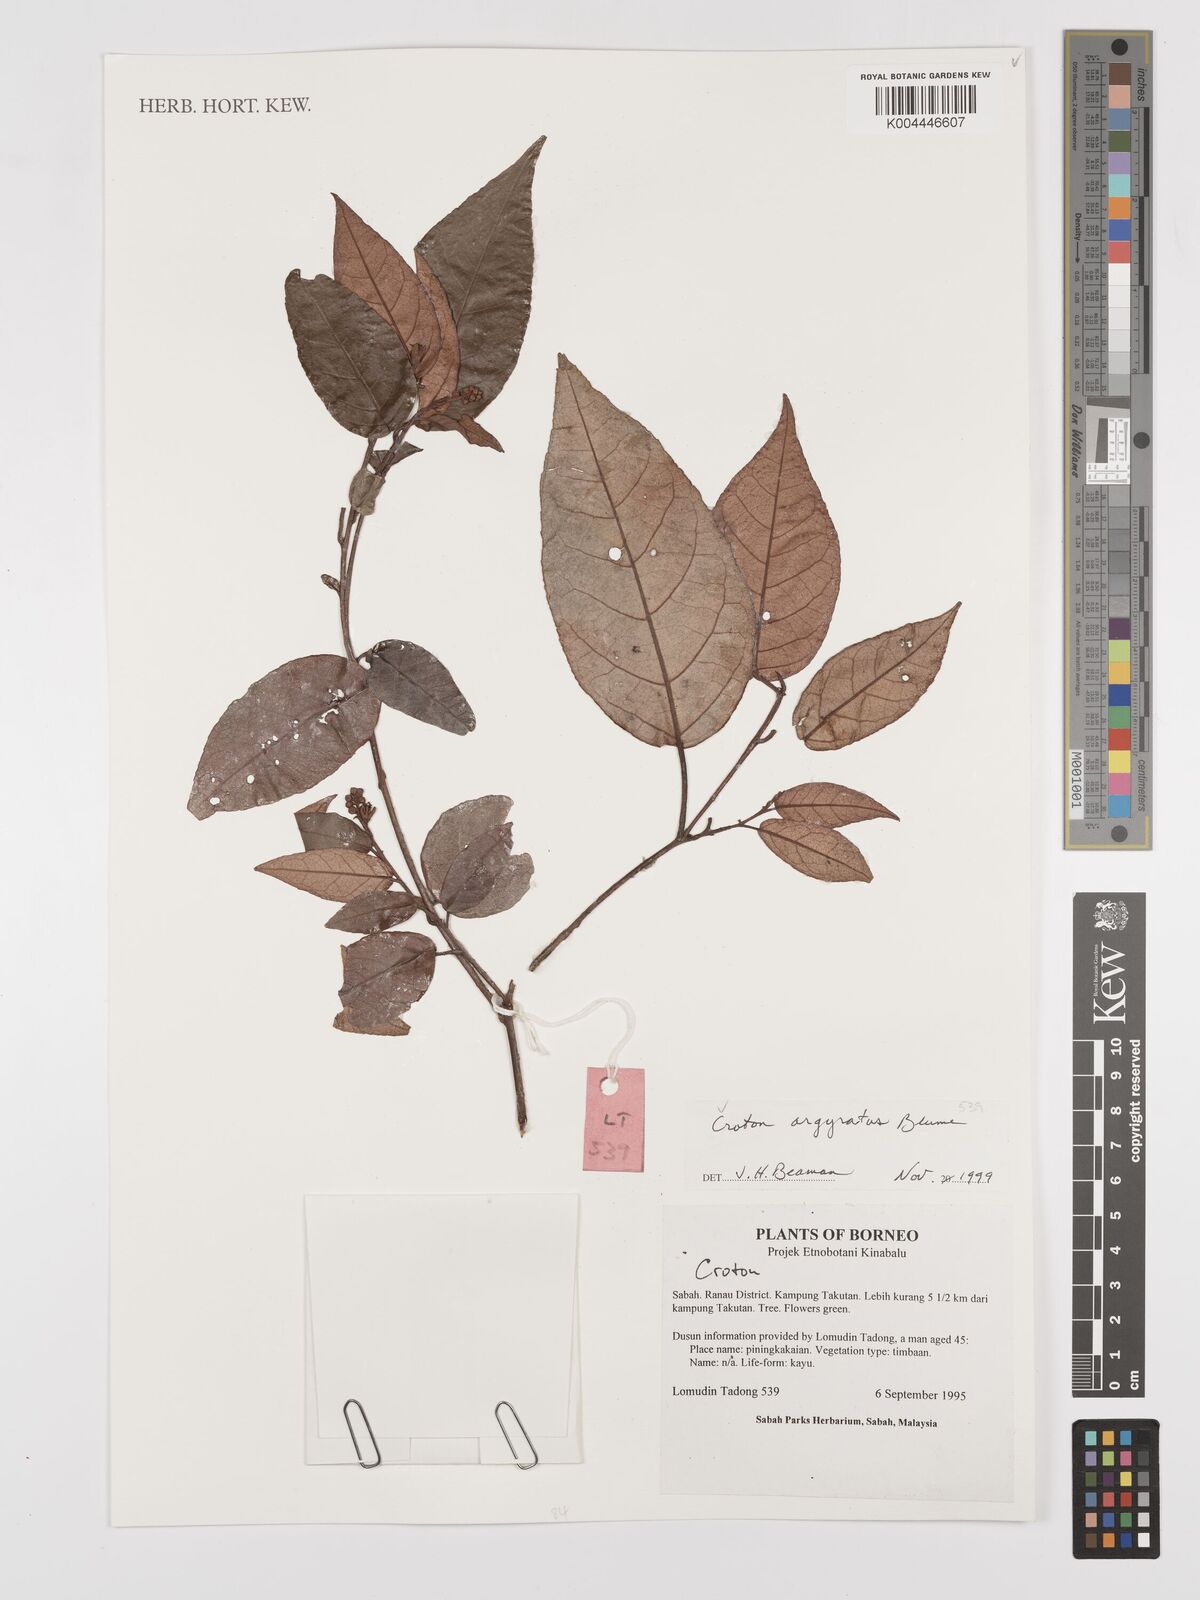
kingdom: Plantae
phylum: Tracheophyta
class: Magnoliopsida
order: Malpighiales
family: Euphorbiaceae
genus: Croton
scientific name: Croton argyratus
